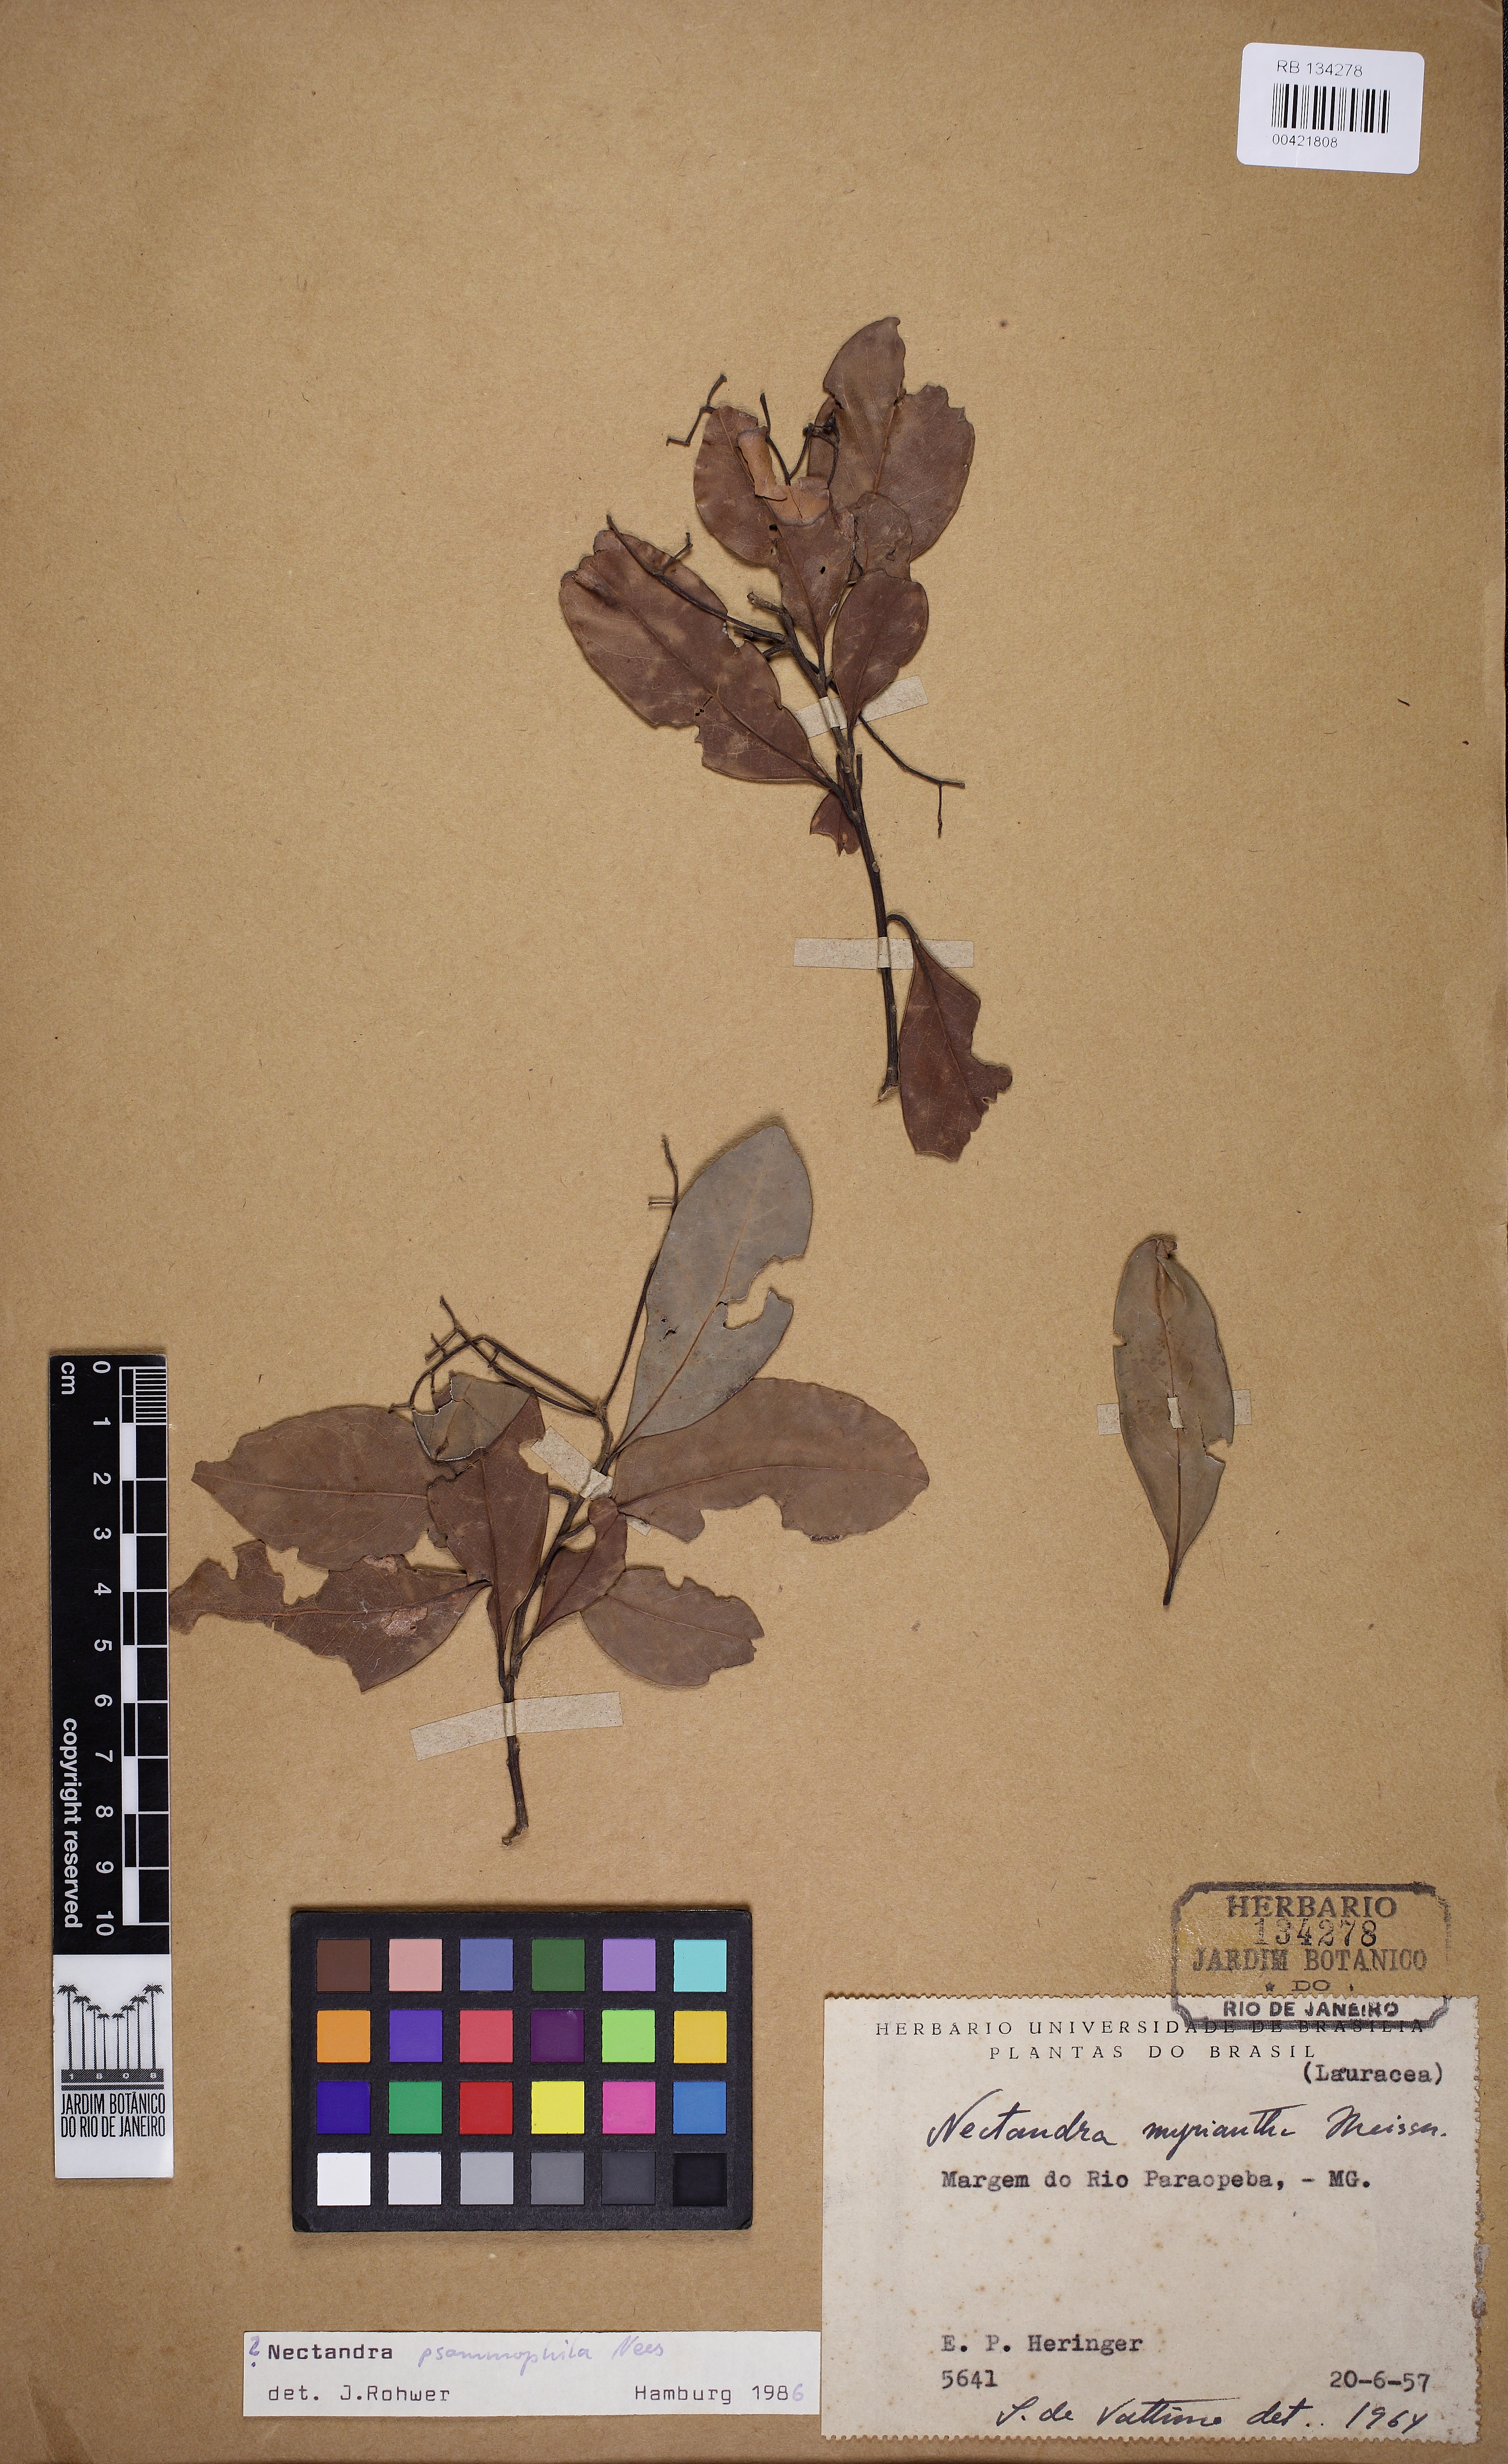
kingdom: Plantae
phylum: Tracheophyta
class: Magnoliopsida
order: Laurales
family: Lauraceae
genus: Nectandra
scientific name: Nectandra psammophila
